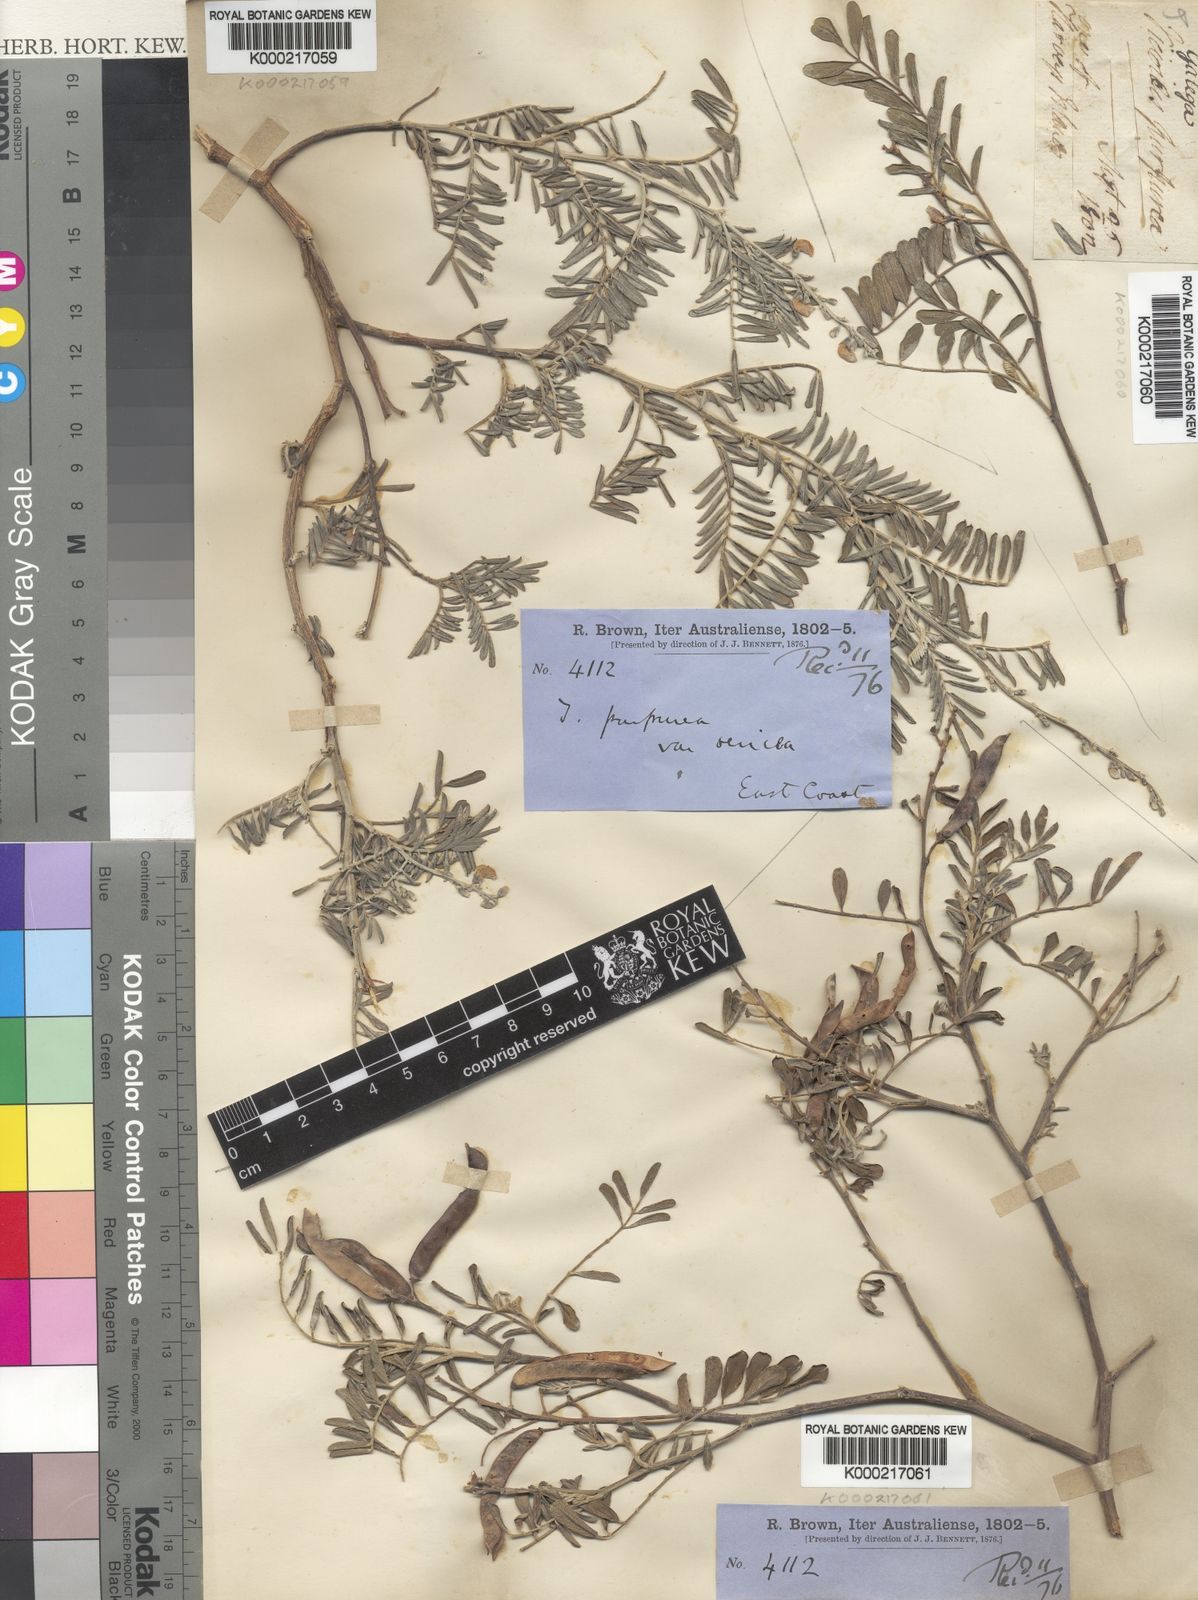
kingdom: Plantae
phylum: Tracheophyta
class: Magnoliopsida
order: Fabales
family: Fabaceae
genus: Tephrosia
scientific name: Tephrosia purpurea
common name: Fishpoison
